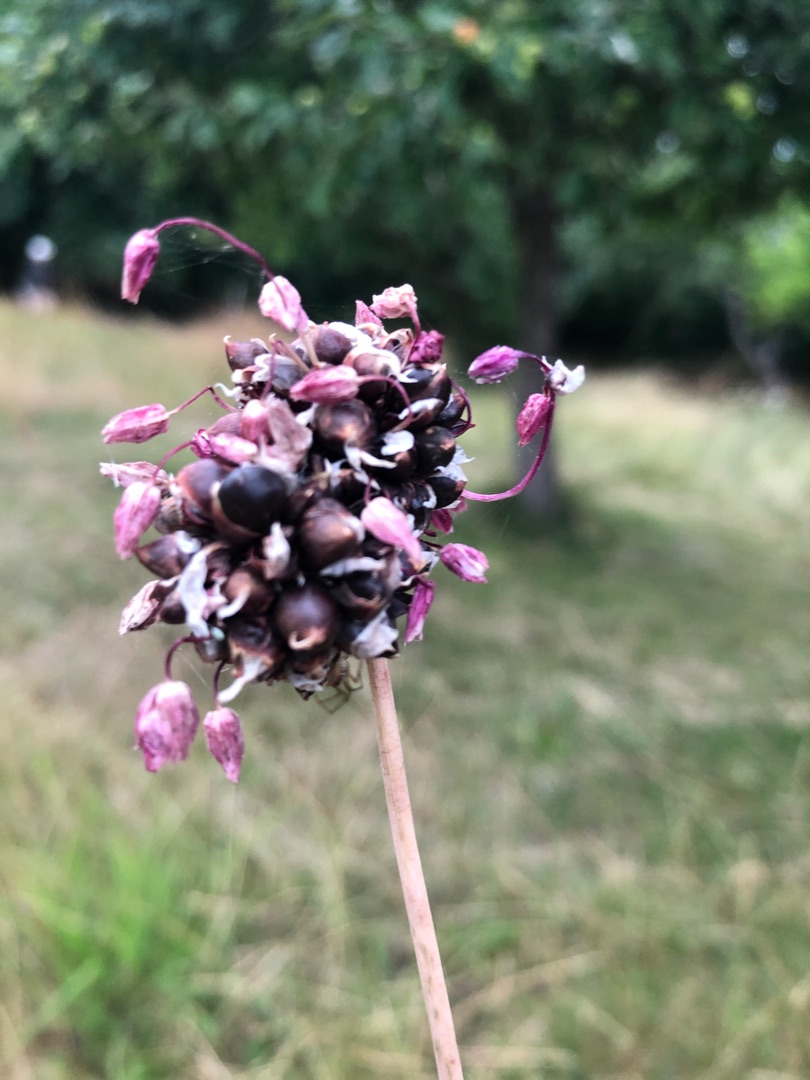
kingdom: Plantae
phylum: Tracheophyta
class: Liliopsida
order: Asparagales
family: Amaryllidaceae
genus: Allium
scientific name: Allium scorodoprasum
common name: Skov-løg
